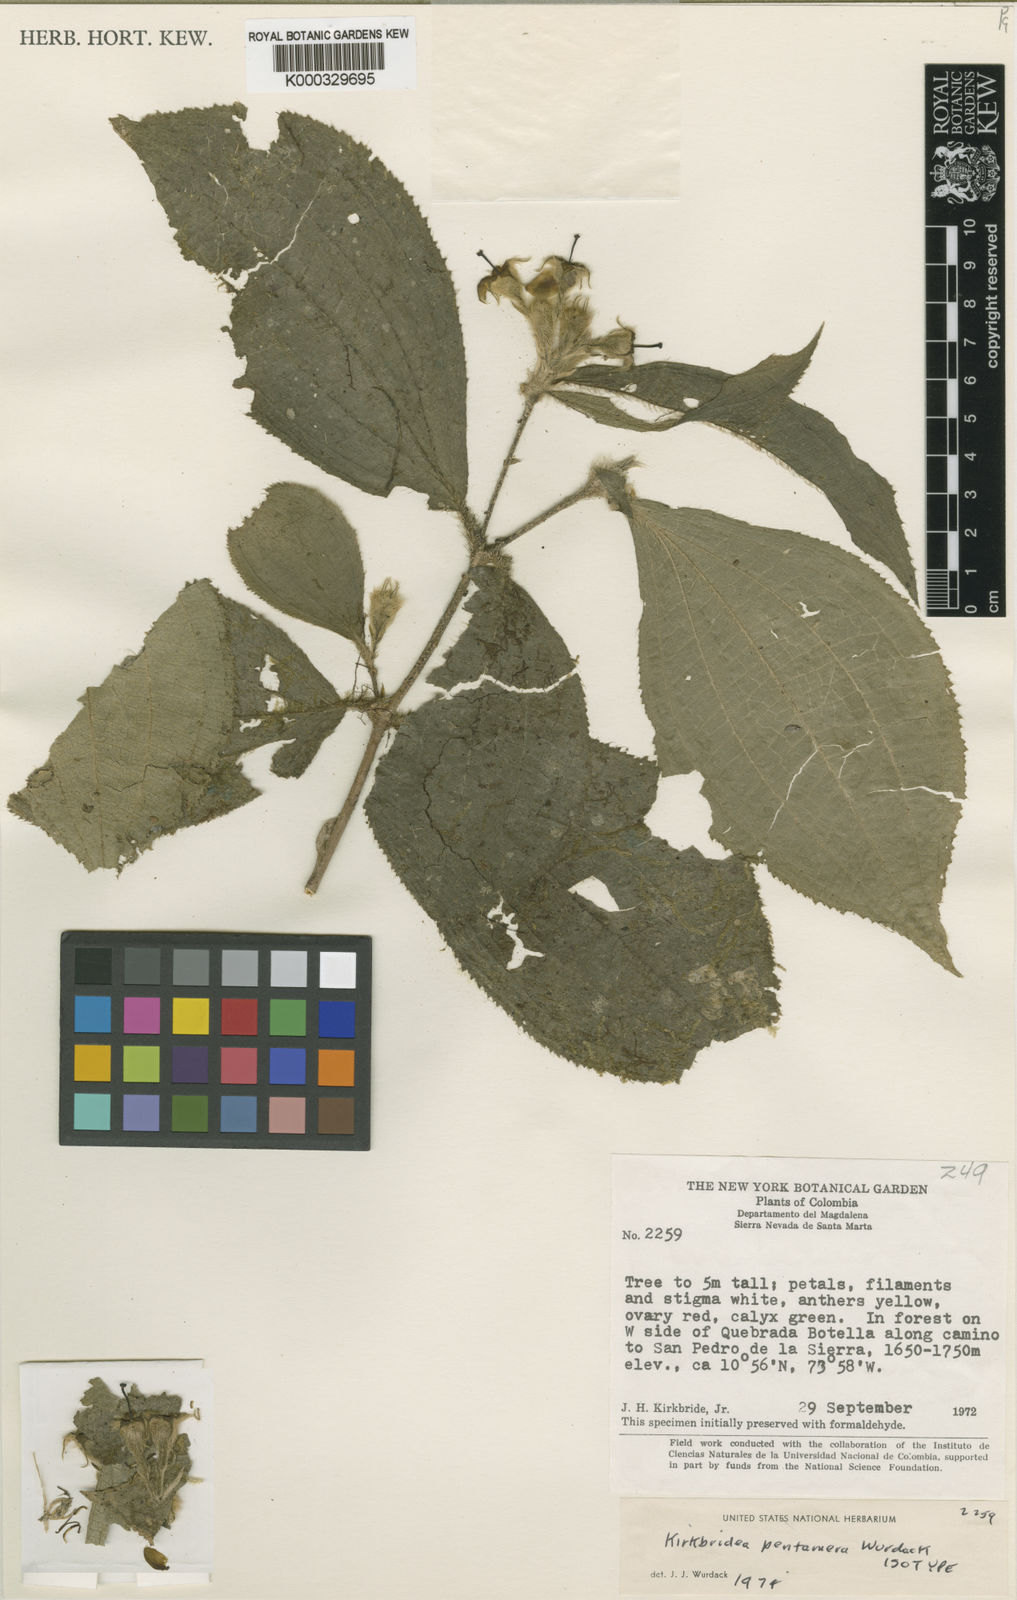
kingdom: Plantae
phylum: Tracheophyta
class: Magnoliopsida
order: Myrtales
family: Melastomataceae
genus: Kirkbridea
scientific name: Kirkbridea pentamera
